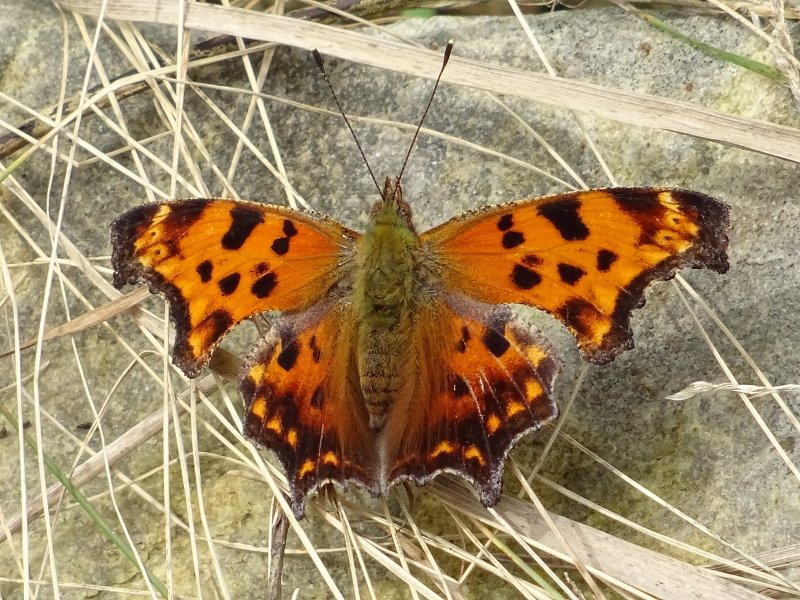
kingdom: Animalia
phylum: Arthropoda
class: Insecta
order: Lepidoptera
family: Nymphalidae
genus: Polygonia
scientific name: Polygonia comma
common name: Eastern Comma
